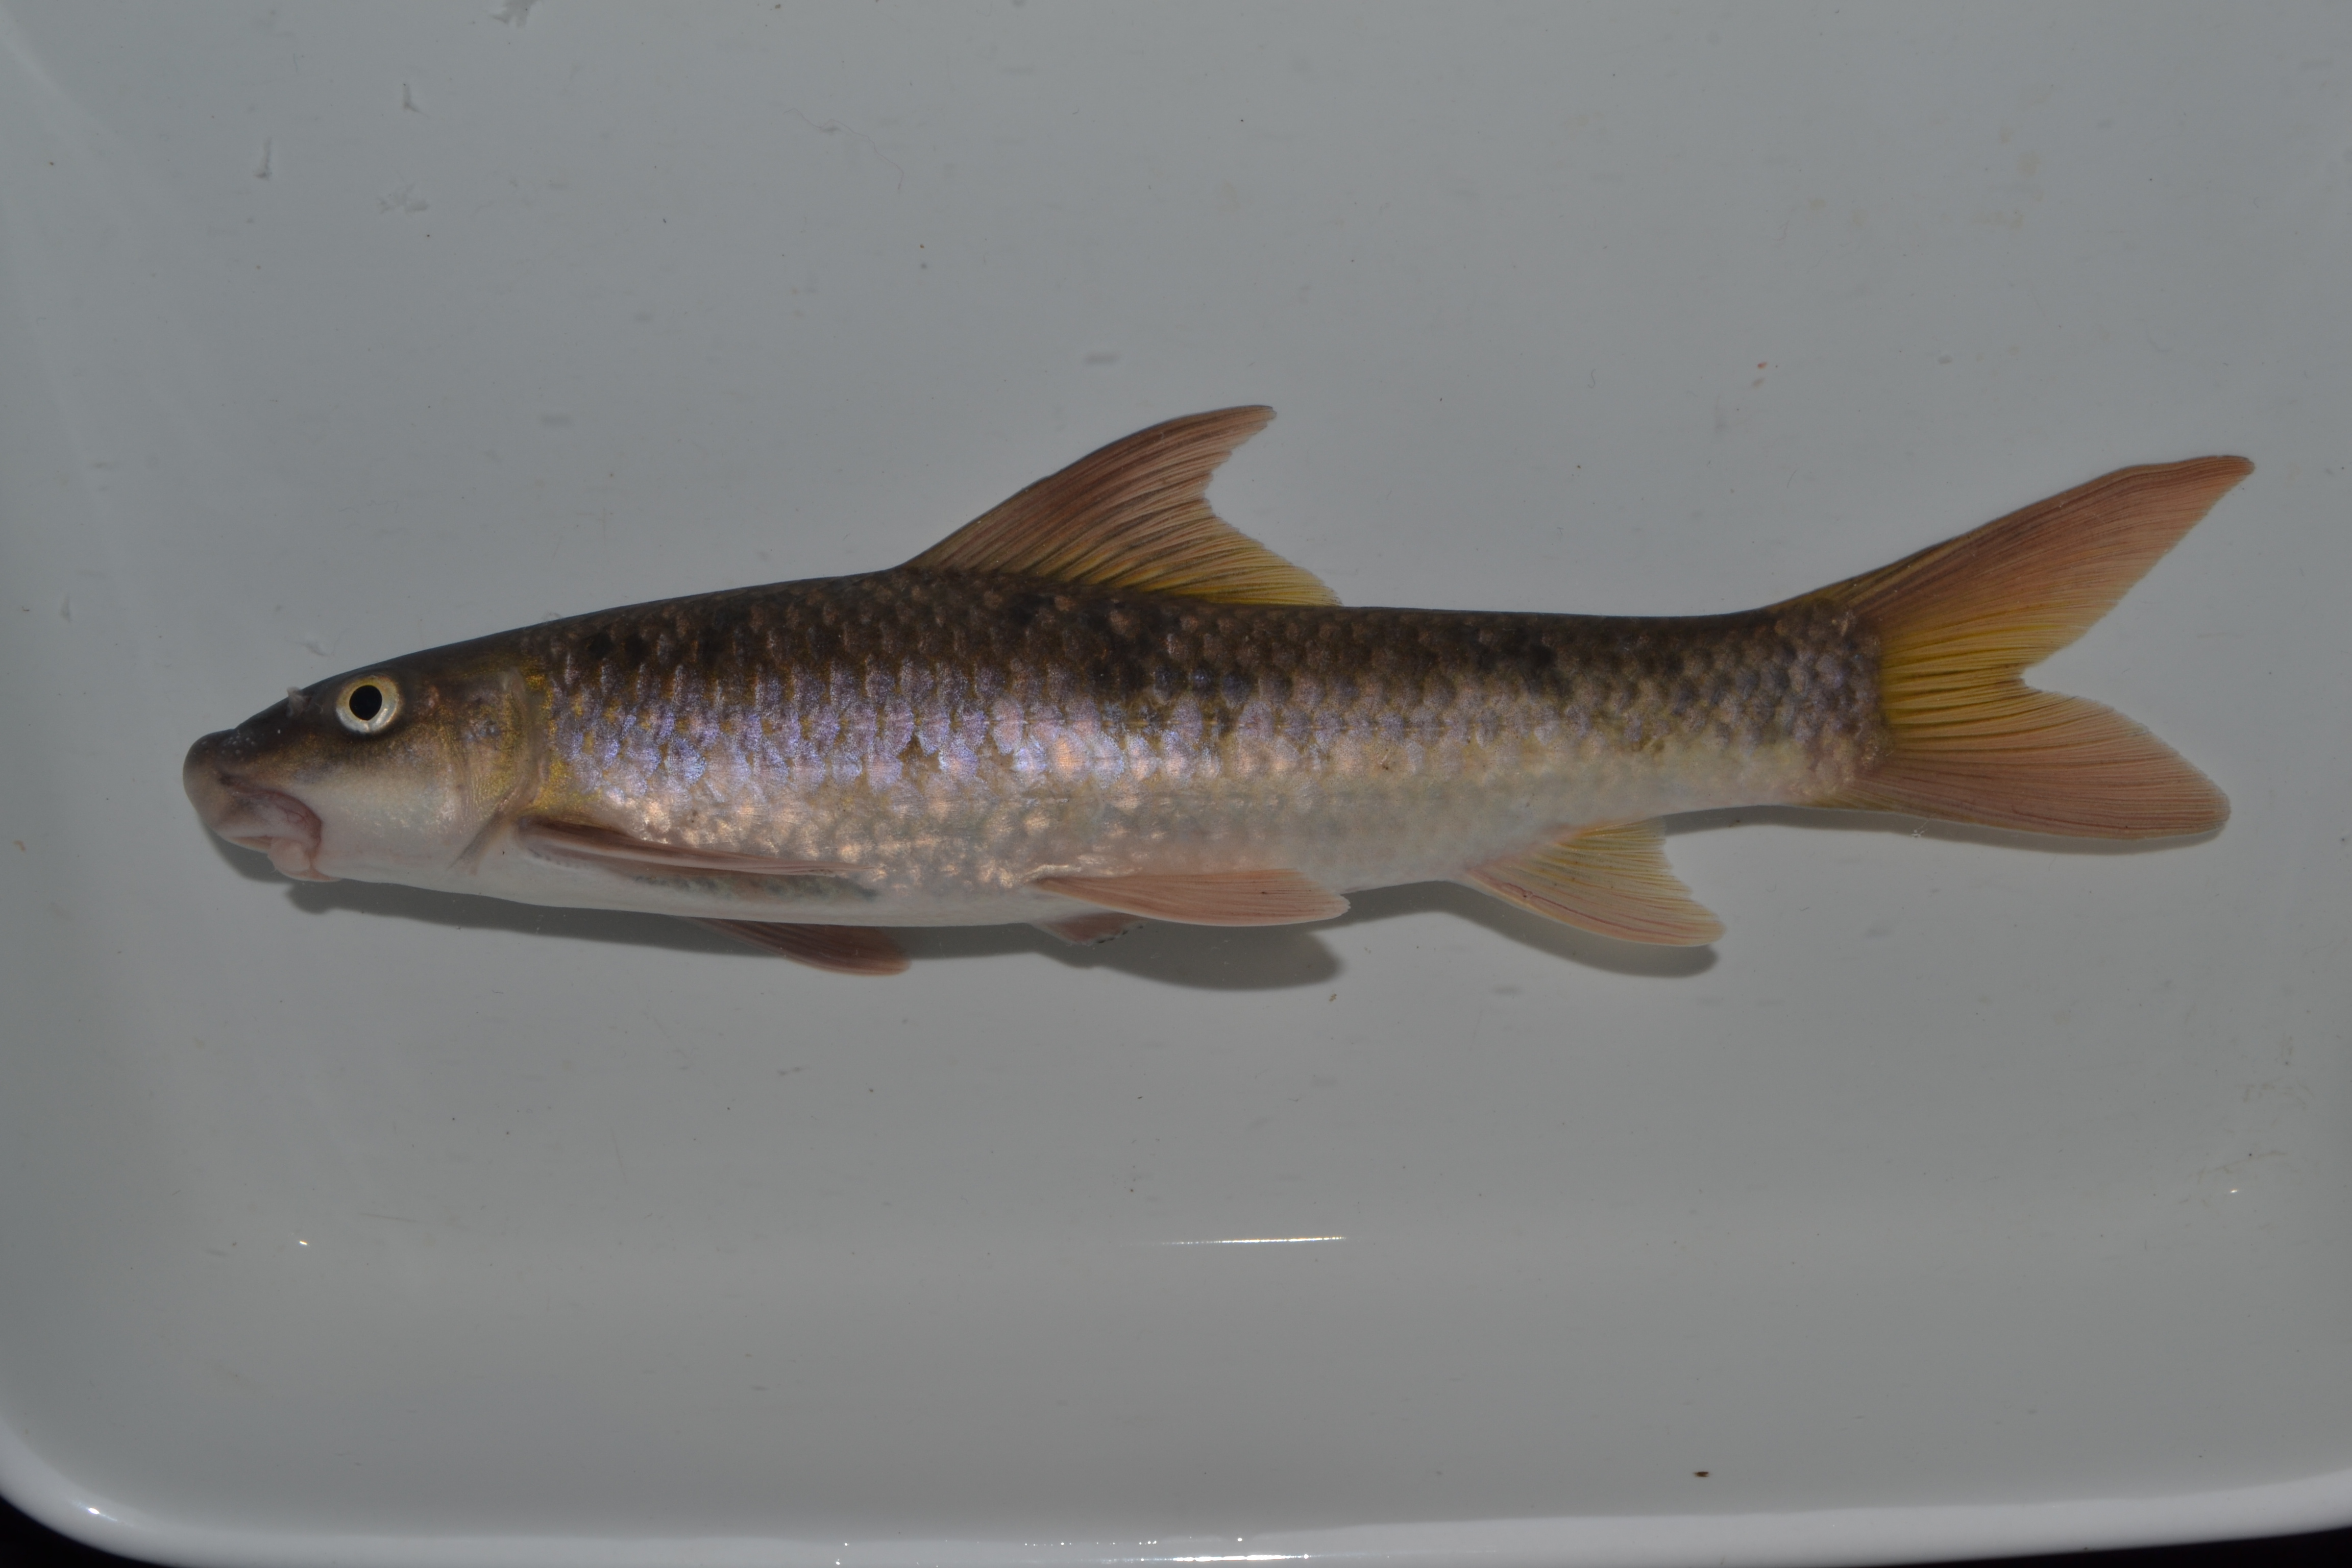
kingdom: Animalia
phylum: Chordata
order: Cypriniformes
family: Cyprinidae
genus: Labeo
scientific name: Labeo molybdinus
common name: Leaden labeo
